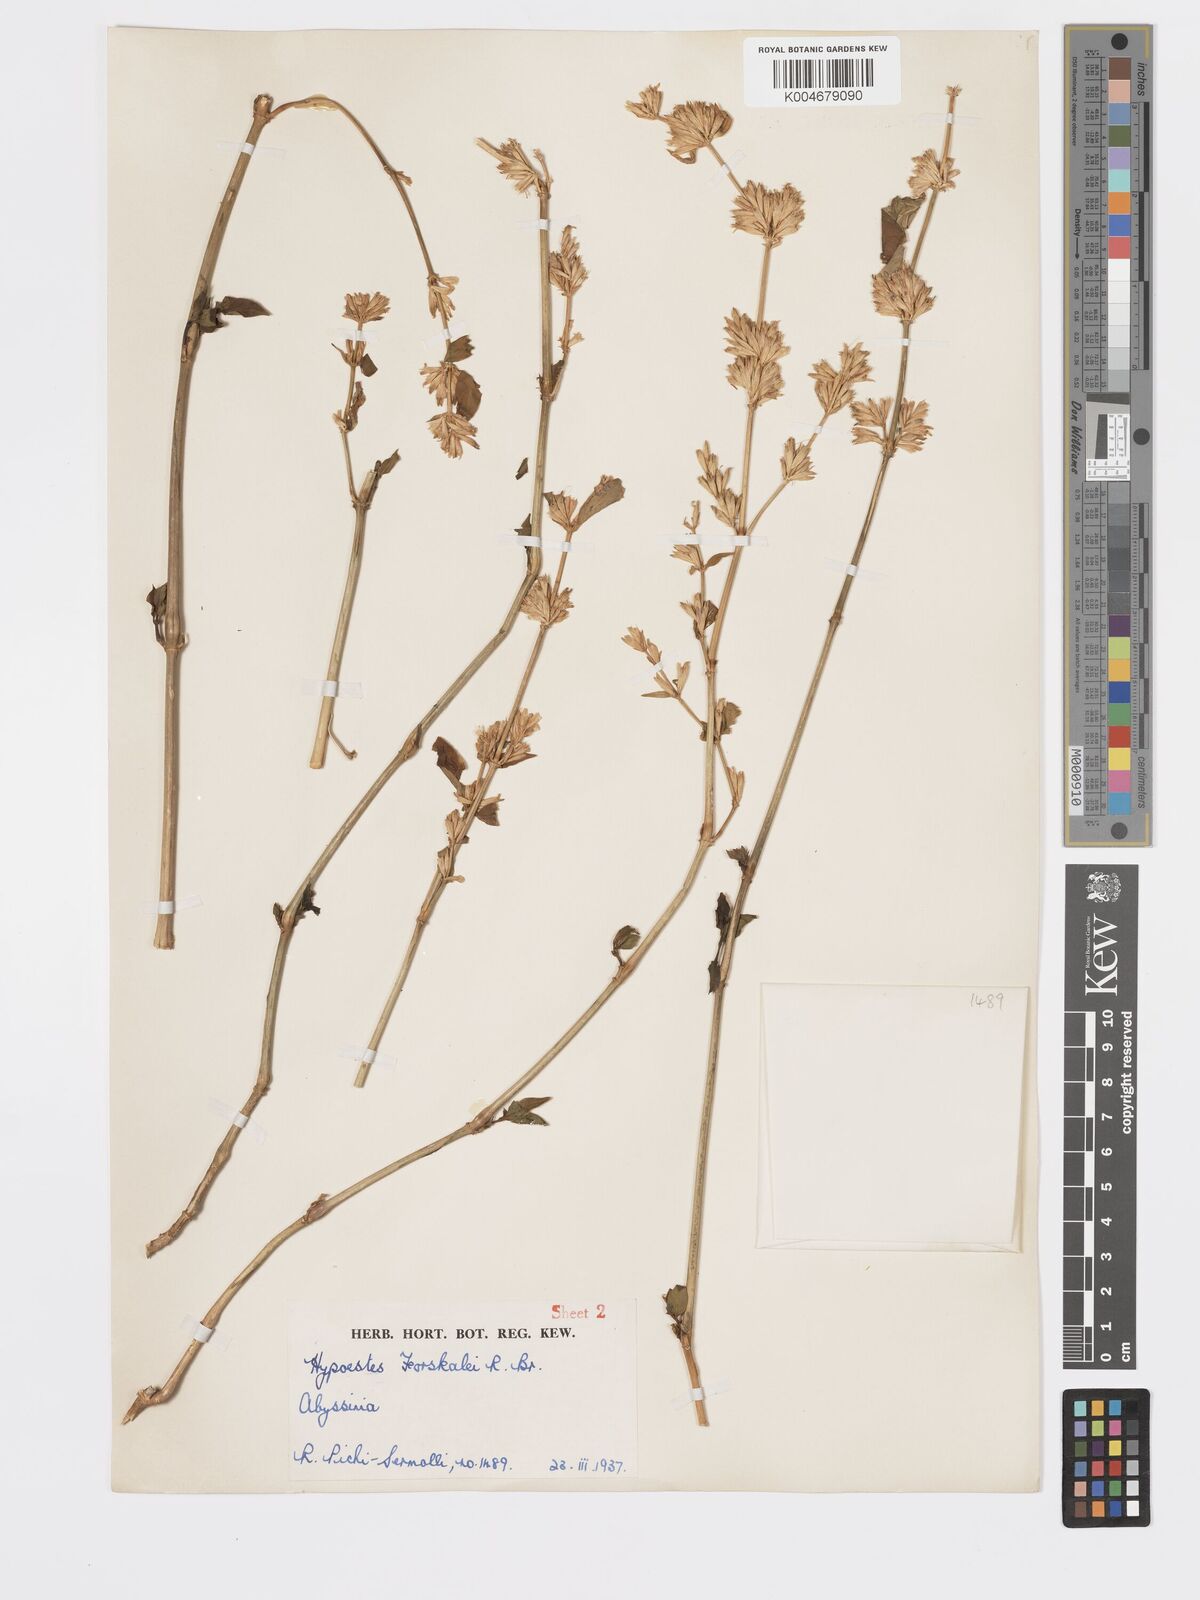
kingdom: Plantae
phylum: Tracheophyta
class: Magnoliopsida
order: Lamiales
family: Acanthaceae
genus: Hypoestes
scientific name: Hypoestes forskaolii
